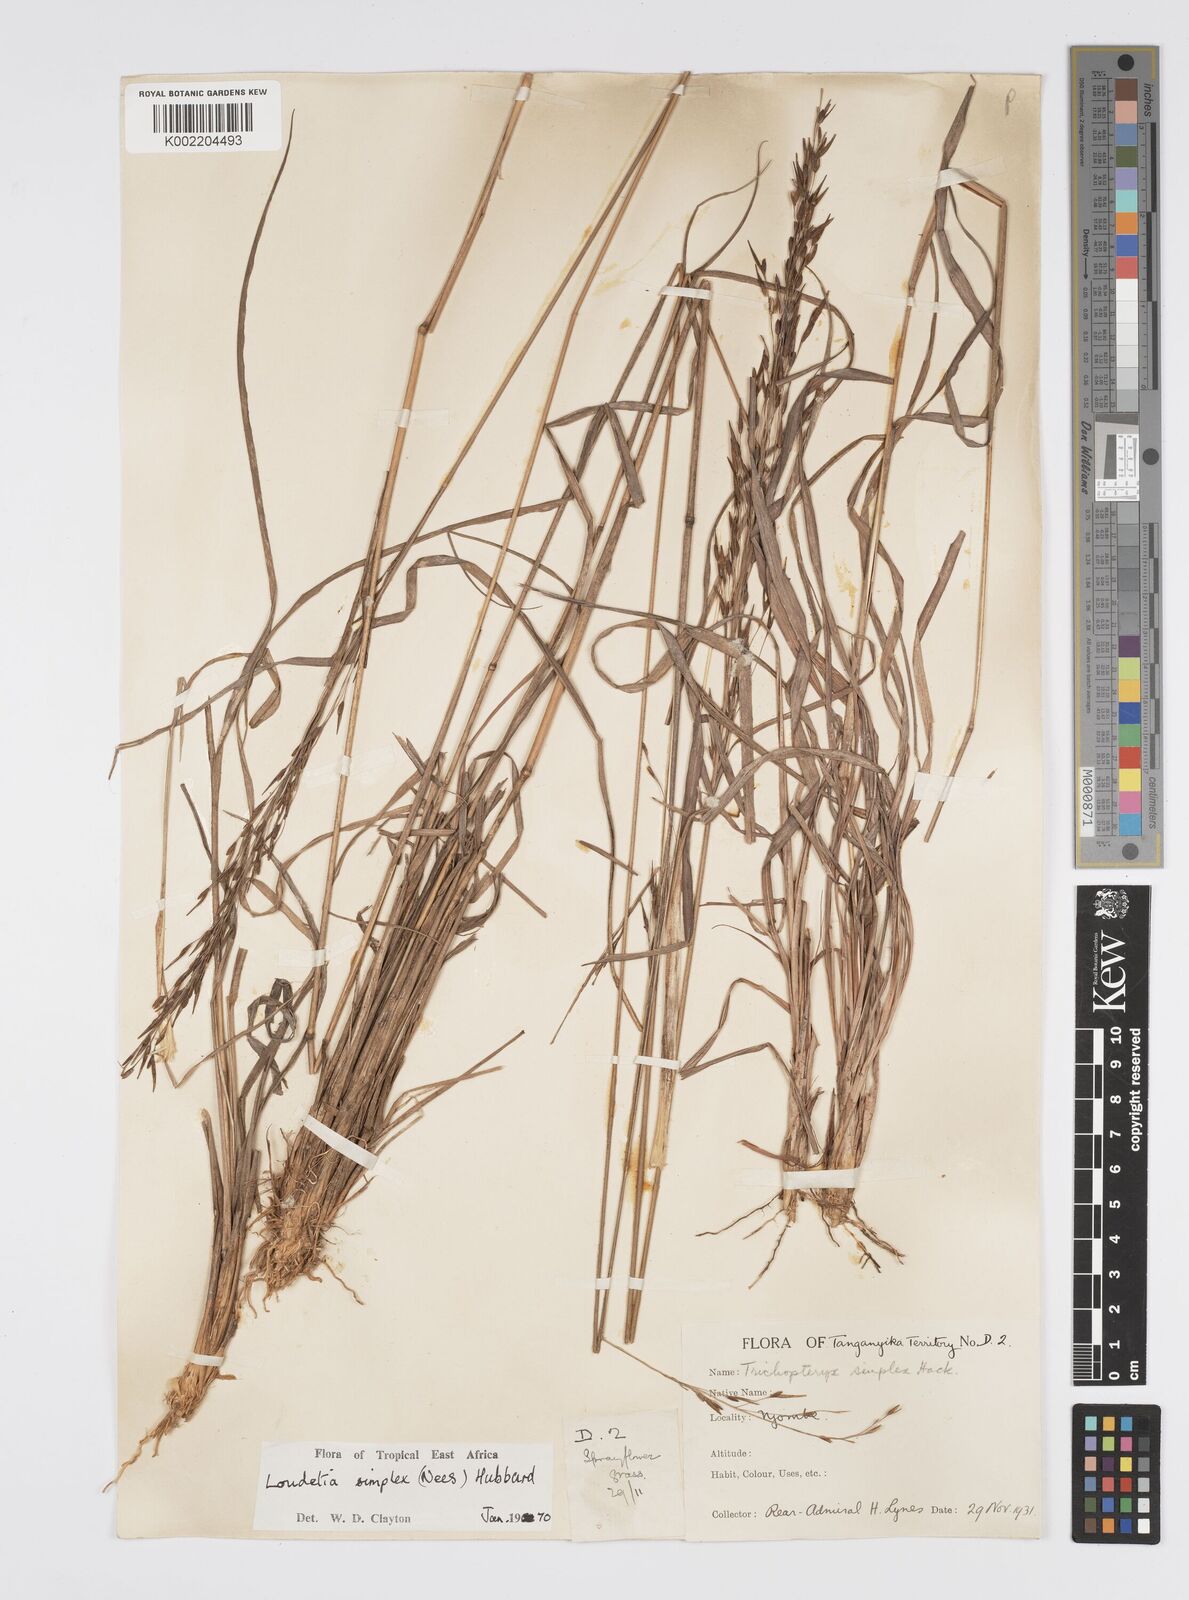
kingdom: Plantae
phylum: Tracheophyta
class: Liliopsida
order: Poales
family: Poaceae
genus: Loudetia
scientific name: Loudetia simplex
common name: Common russet grass
